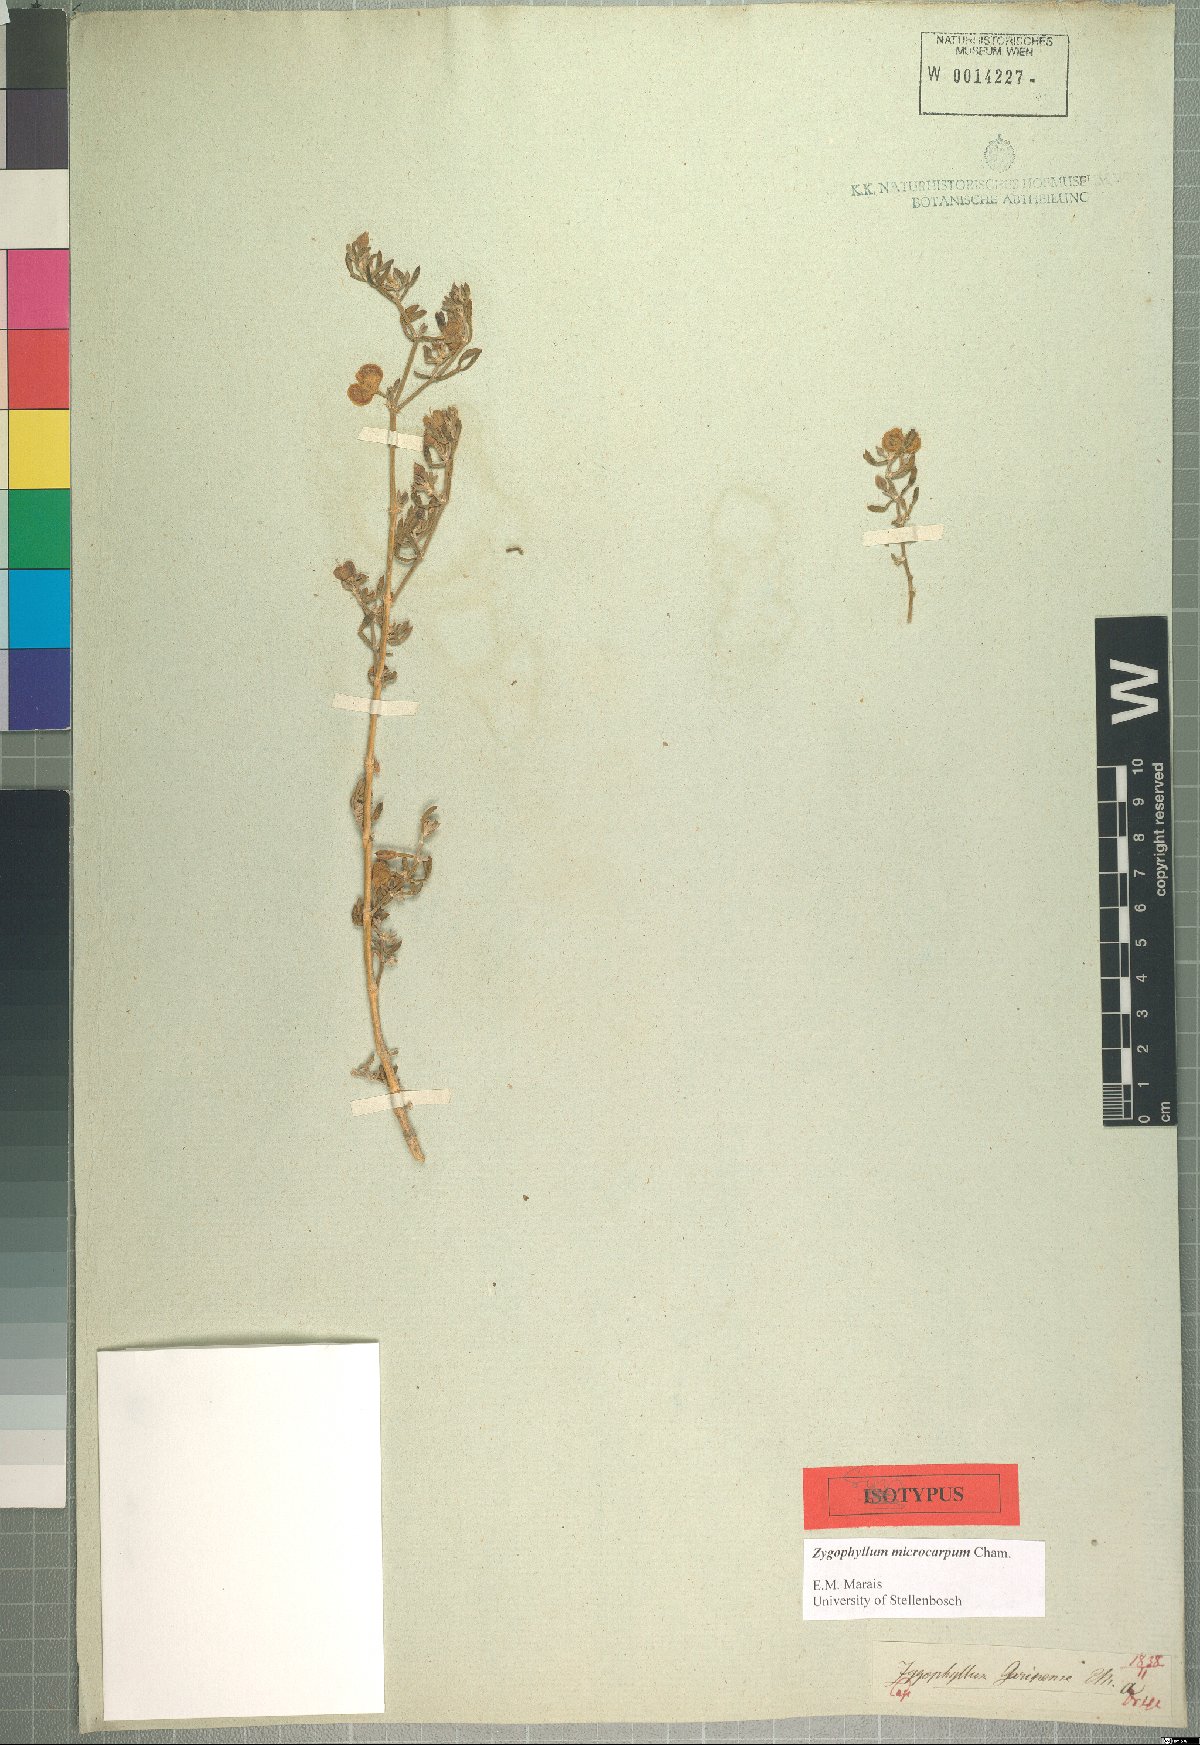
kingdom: Plantae
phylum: Tracheophyta
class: Magnoliopsida
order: Zygophyllales
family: Zygophyllaceae
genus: Tetraena
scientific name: Tetraena microcarpa
